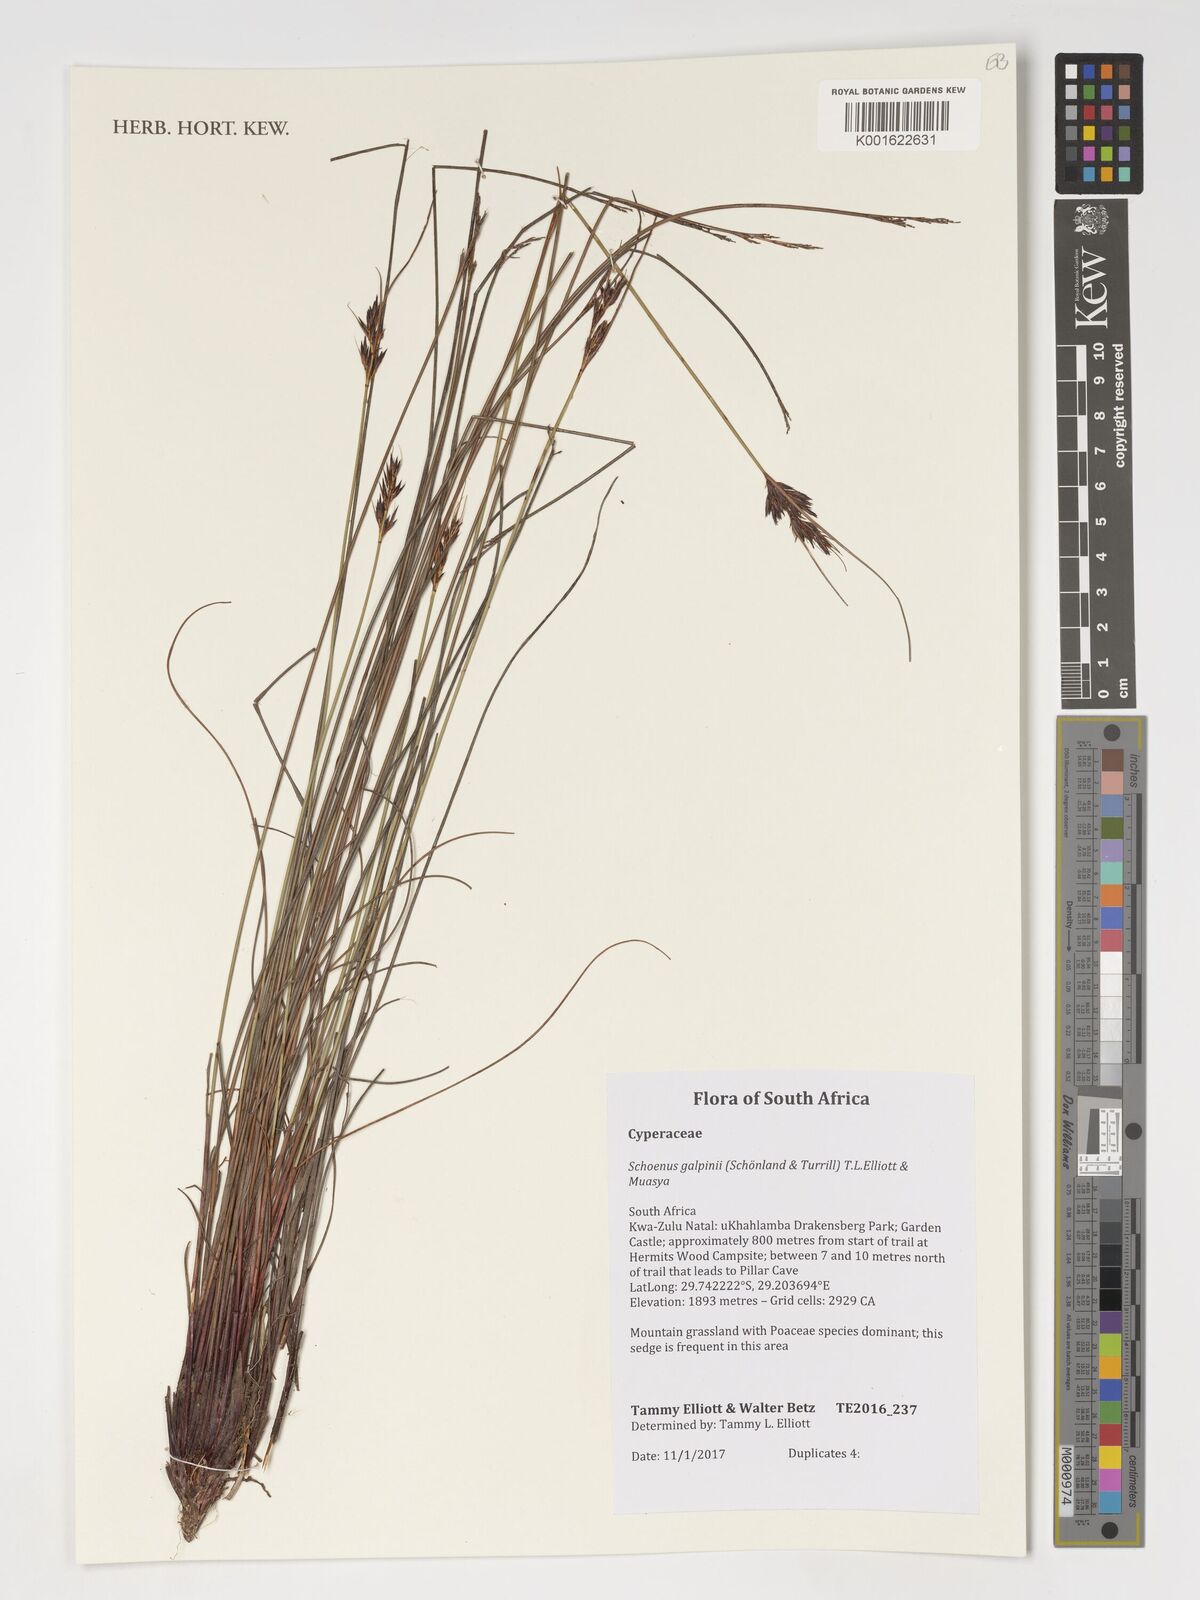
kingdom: Plantae
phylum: Tracheophyta
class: Liliopsida
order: Poales
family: Cyperaceae
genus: Schoenus
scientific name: Schoenus galpinii
